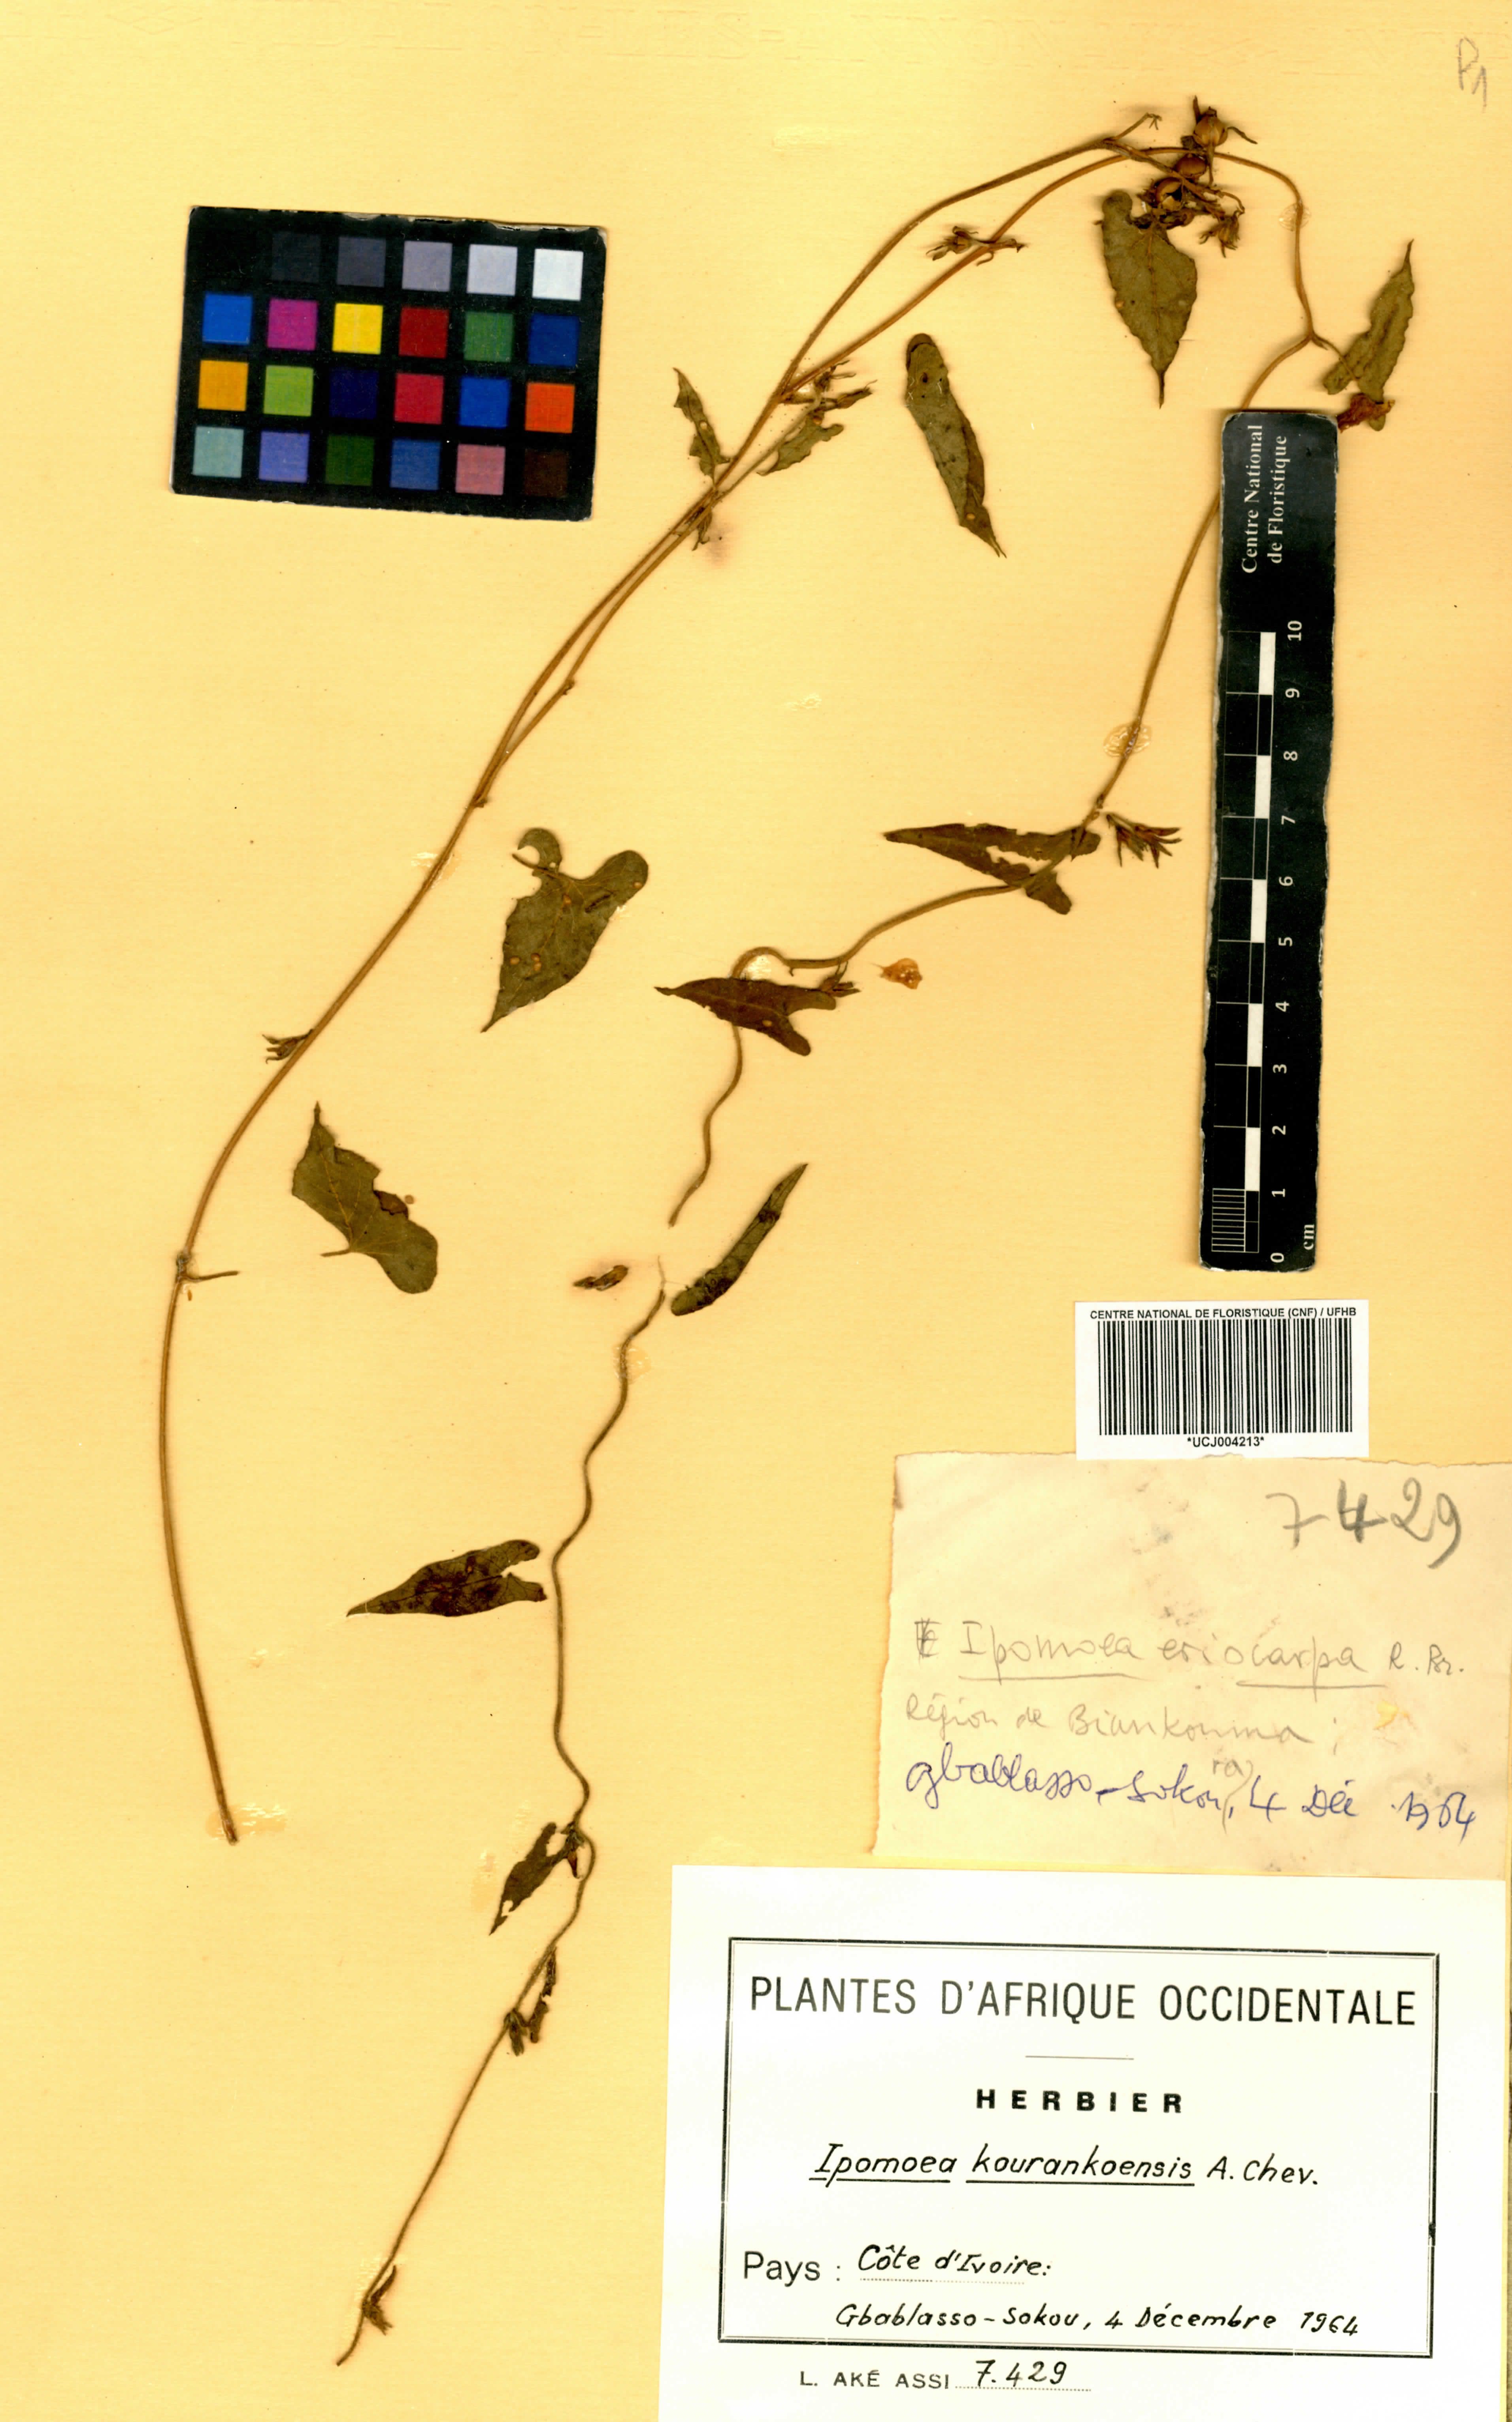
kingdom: Plantae
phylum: Tracheophyta
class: Magnoliopsida
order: Solanales
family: Convolvulaceae
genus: Ipomoea
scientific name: Ipomoea eriocarpa
